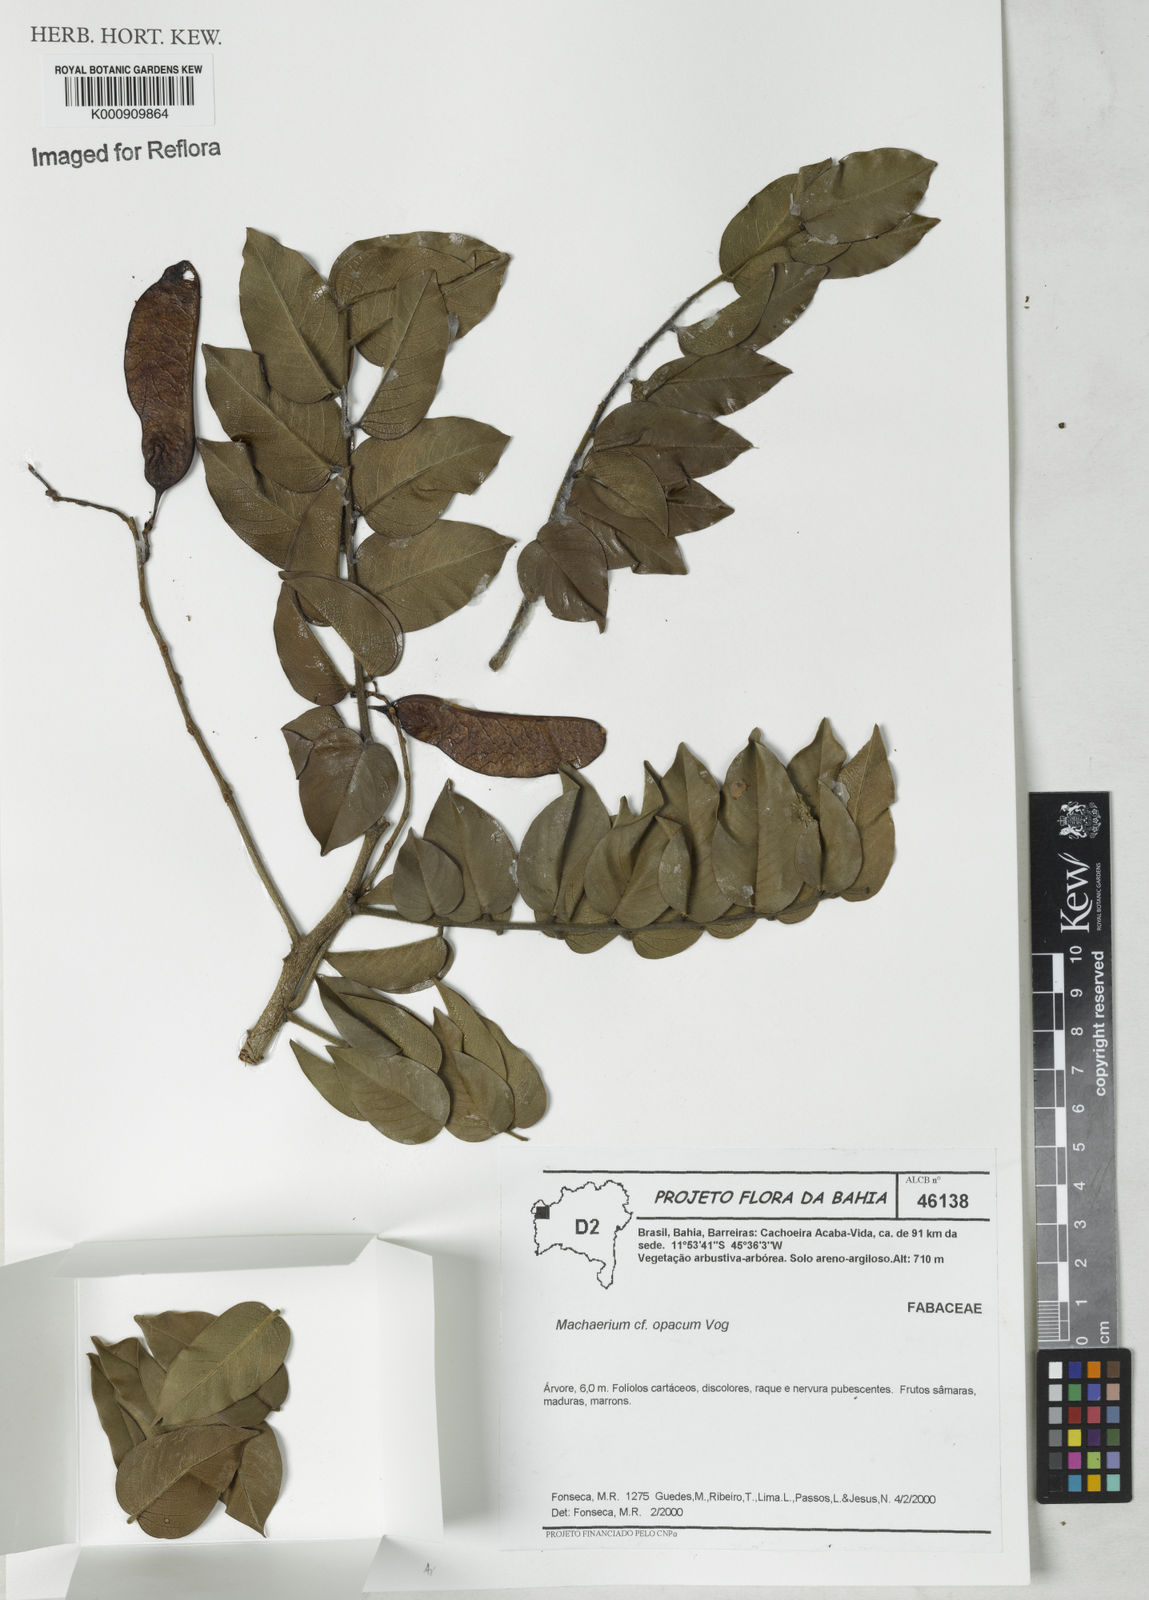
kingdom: Plantae
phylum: Tracheophyta
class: Magnoliopsida
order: Fabales
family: Fabaceae
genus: Machaerium
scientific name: Machaerium opacum
